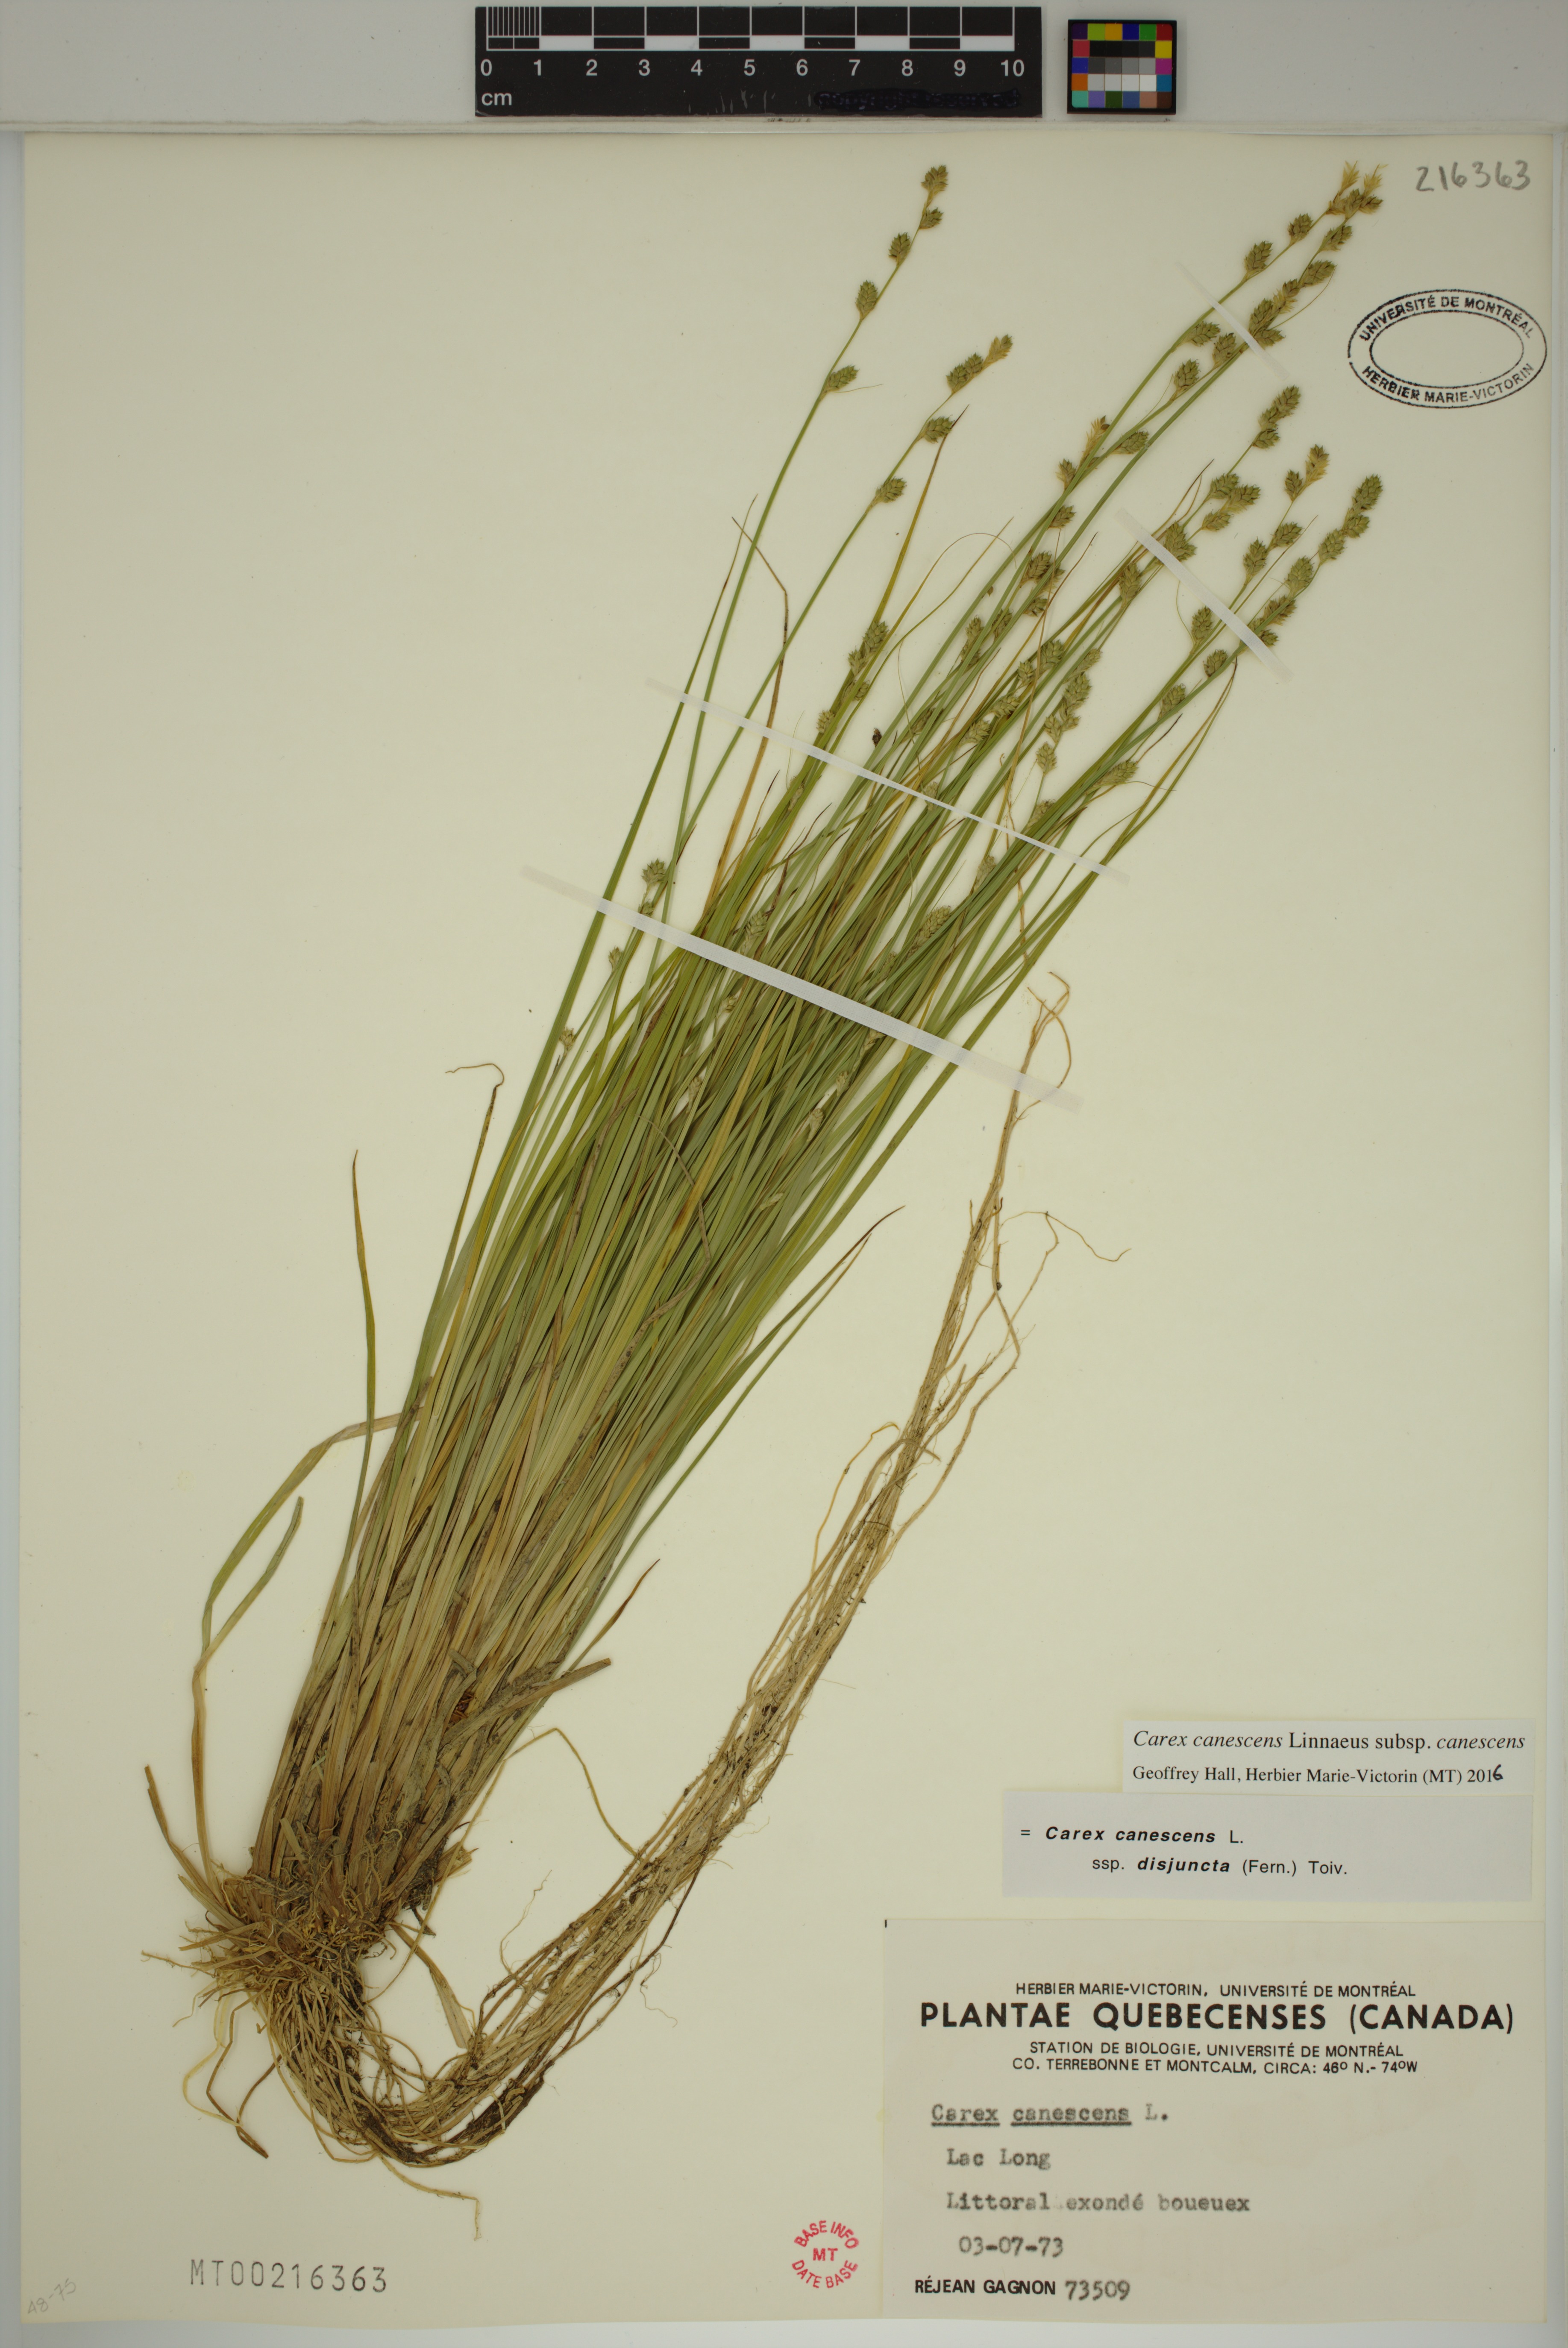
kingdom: Plantae
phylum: Tracheophyta
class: Liliopsida
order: Poales
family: Cyperaceae
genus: Carex
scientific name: Carex canescens
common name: White sedge
